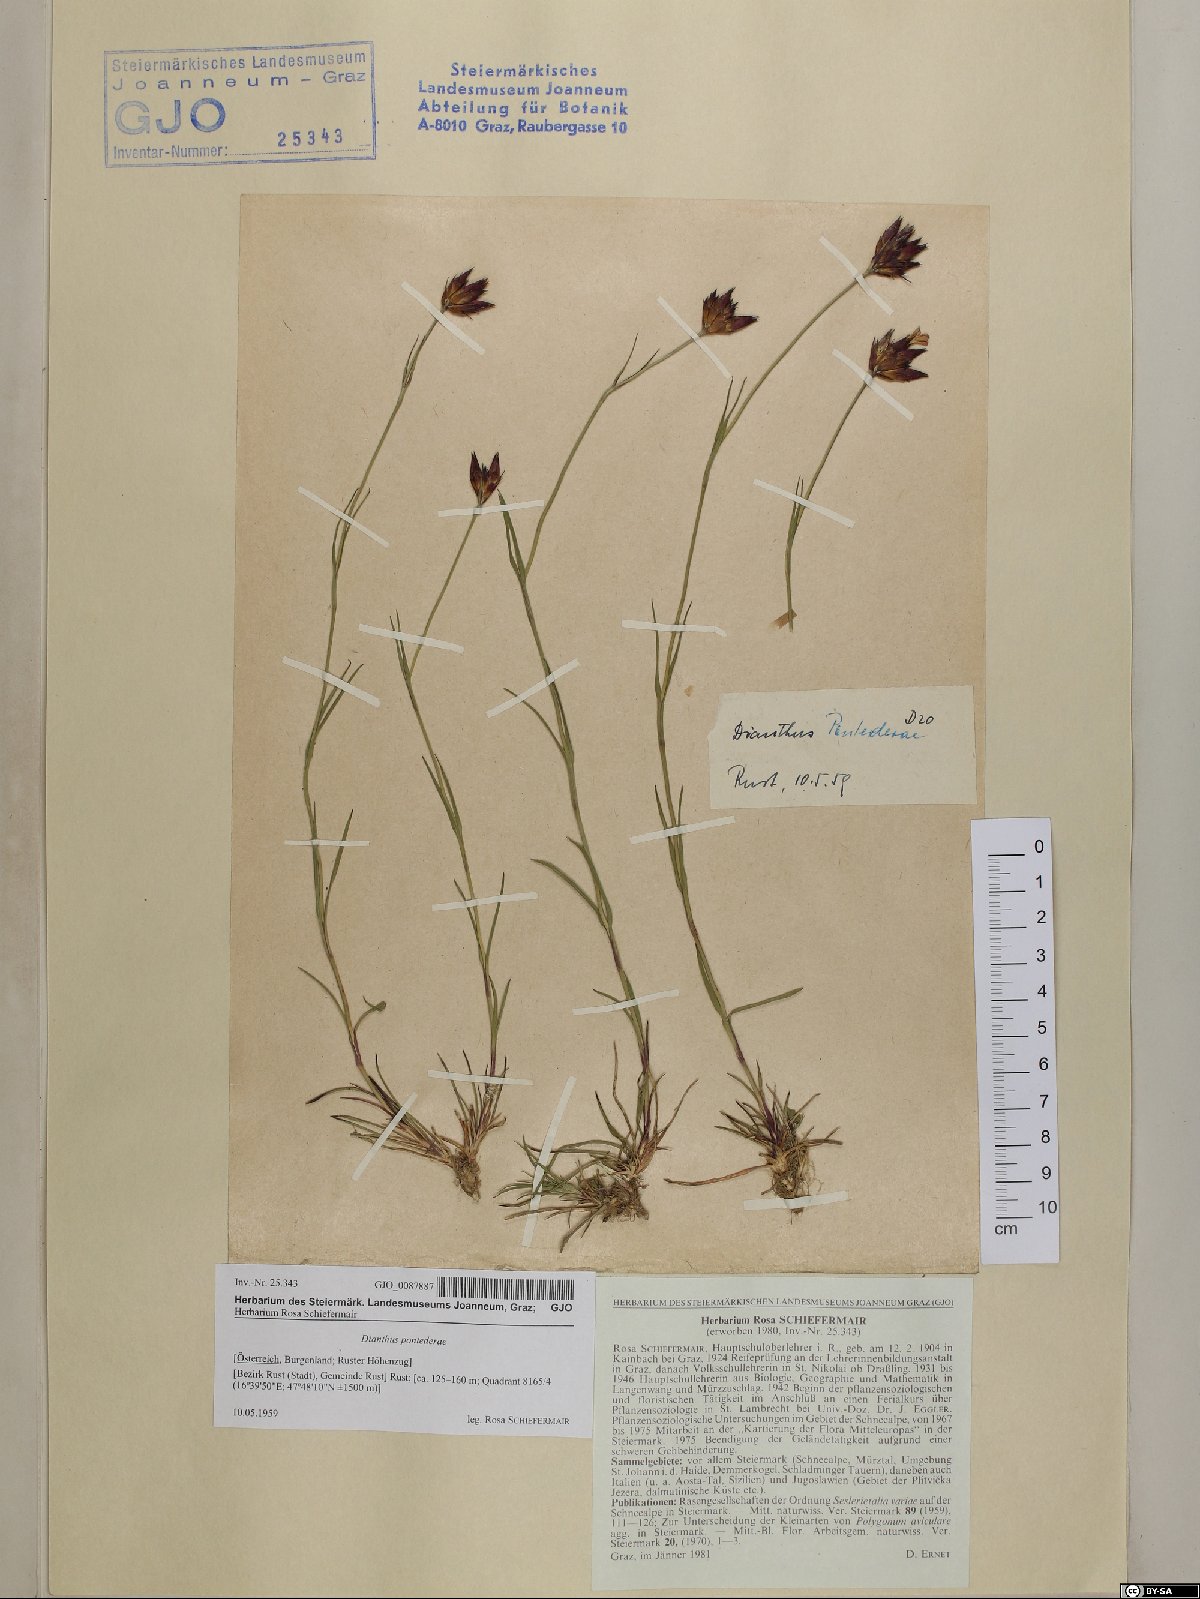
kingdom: Plantae
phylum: Tracheophyta
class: Magnoliopsida
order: Caryophyllales
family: Caryophyllaceae
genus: Dianthus
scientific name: Dianthus pontederae
